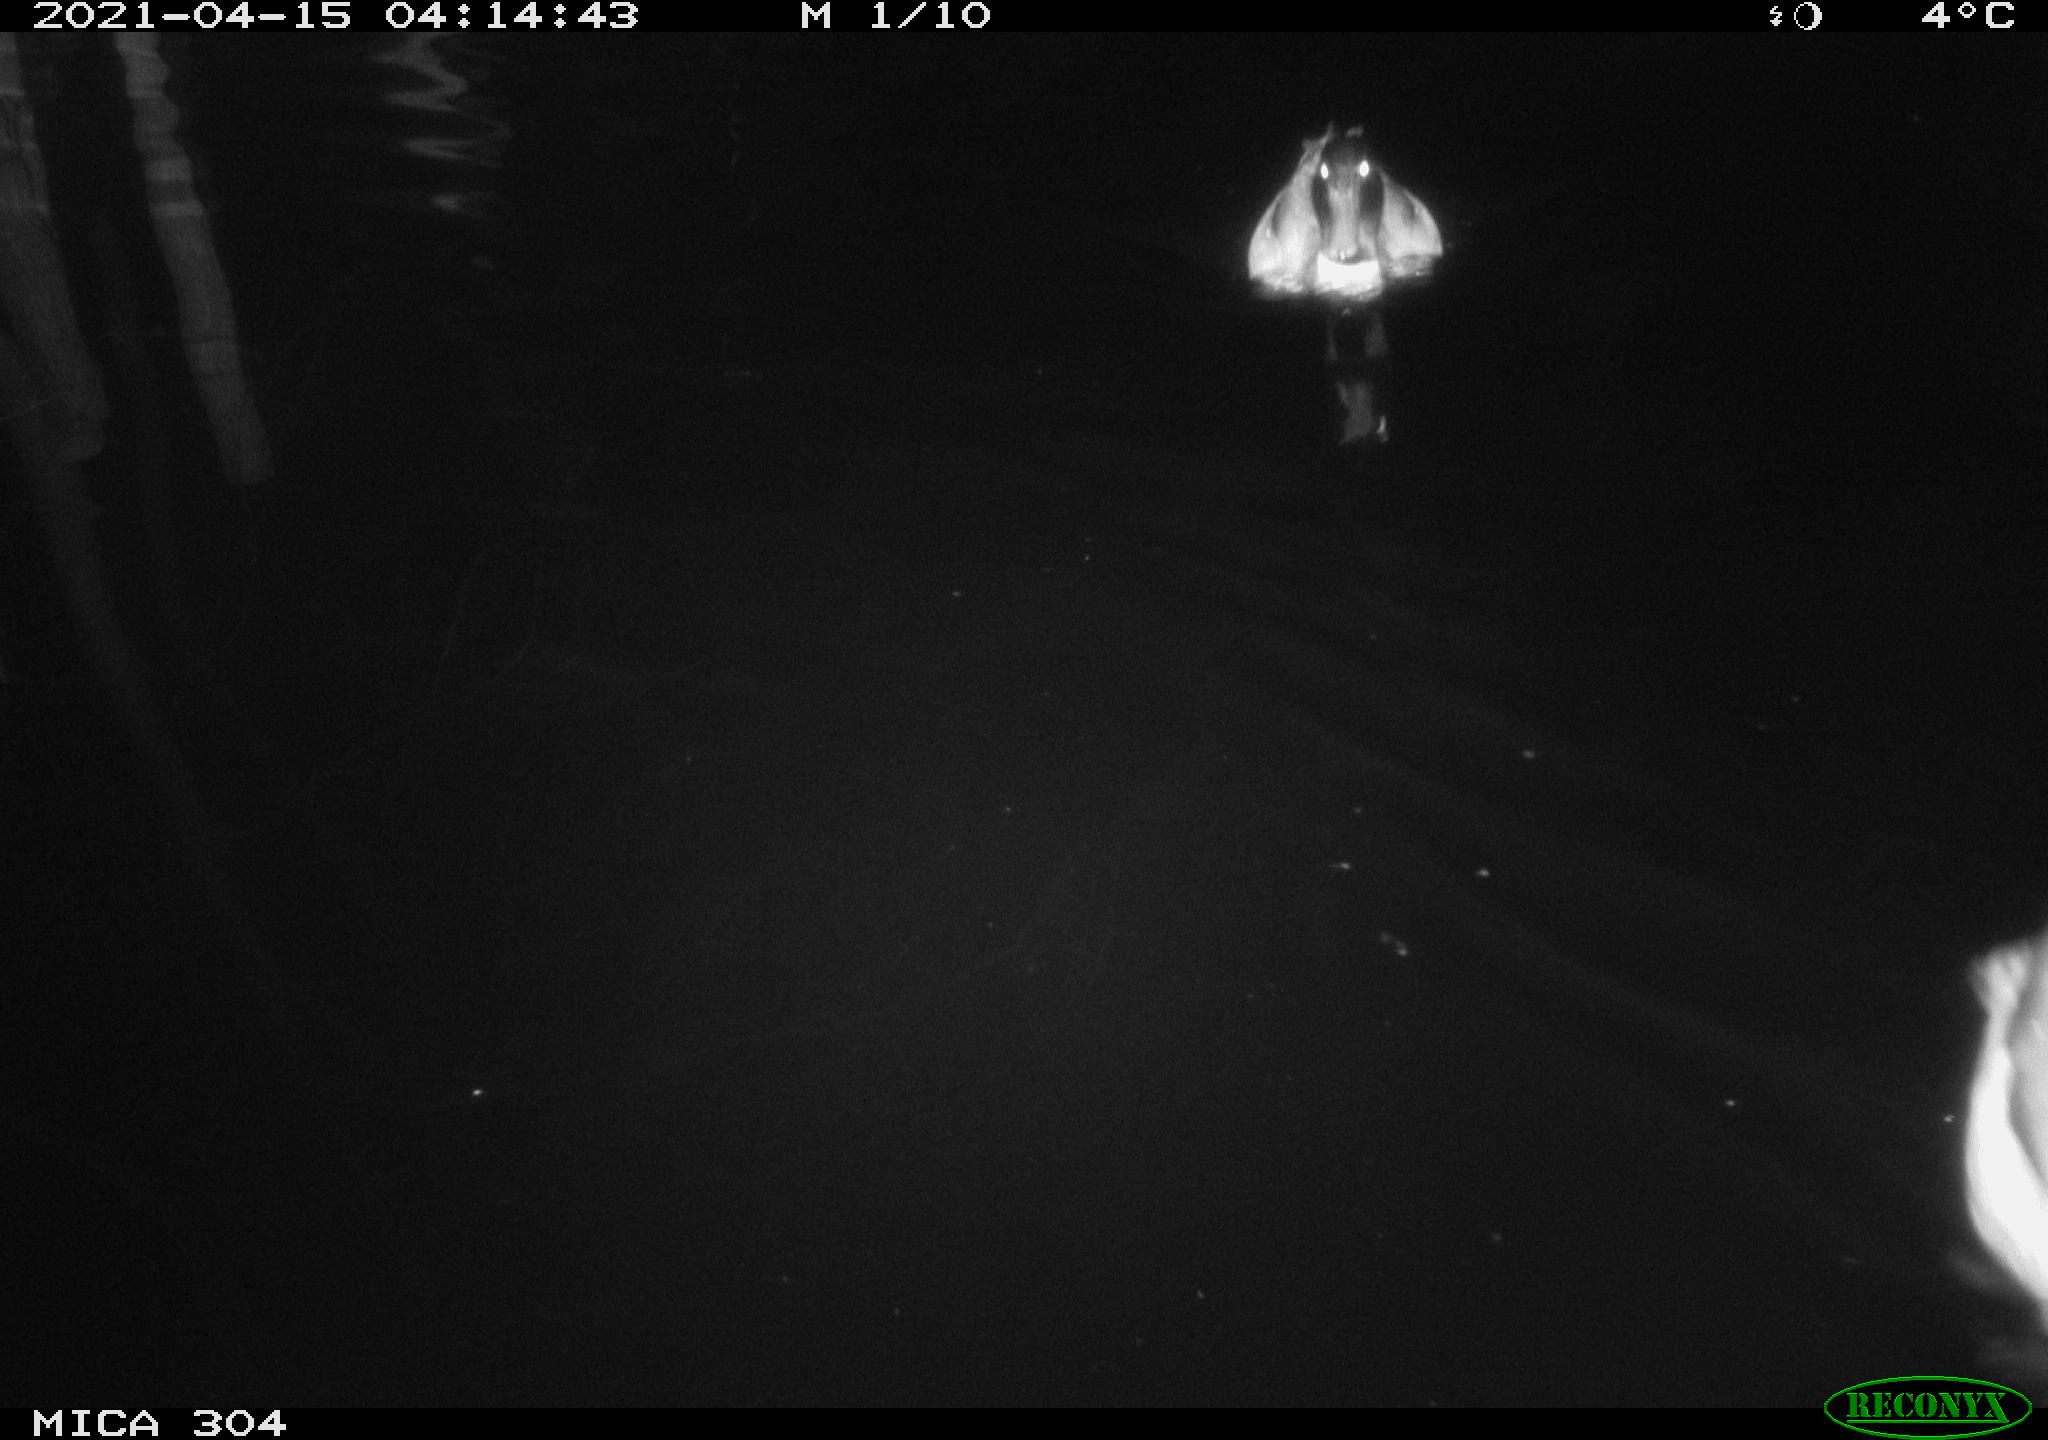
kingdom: Animalia
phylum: Chordata
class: Aves
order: Anseriformes
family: Anatidae
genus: Anas
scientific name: Anas
